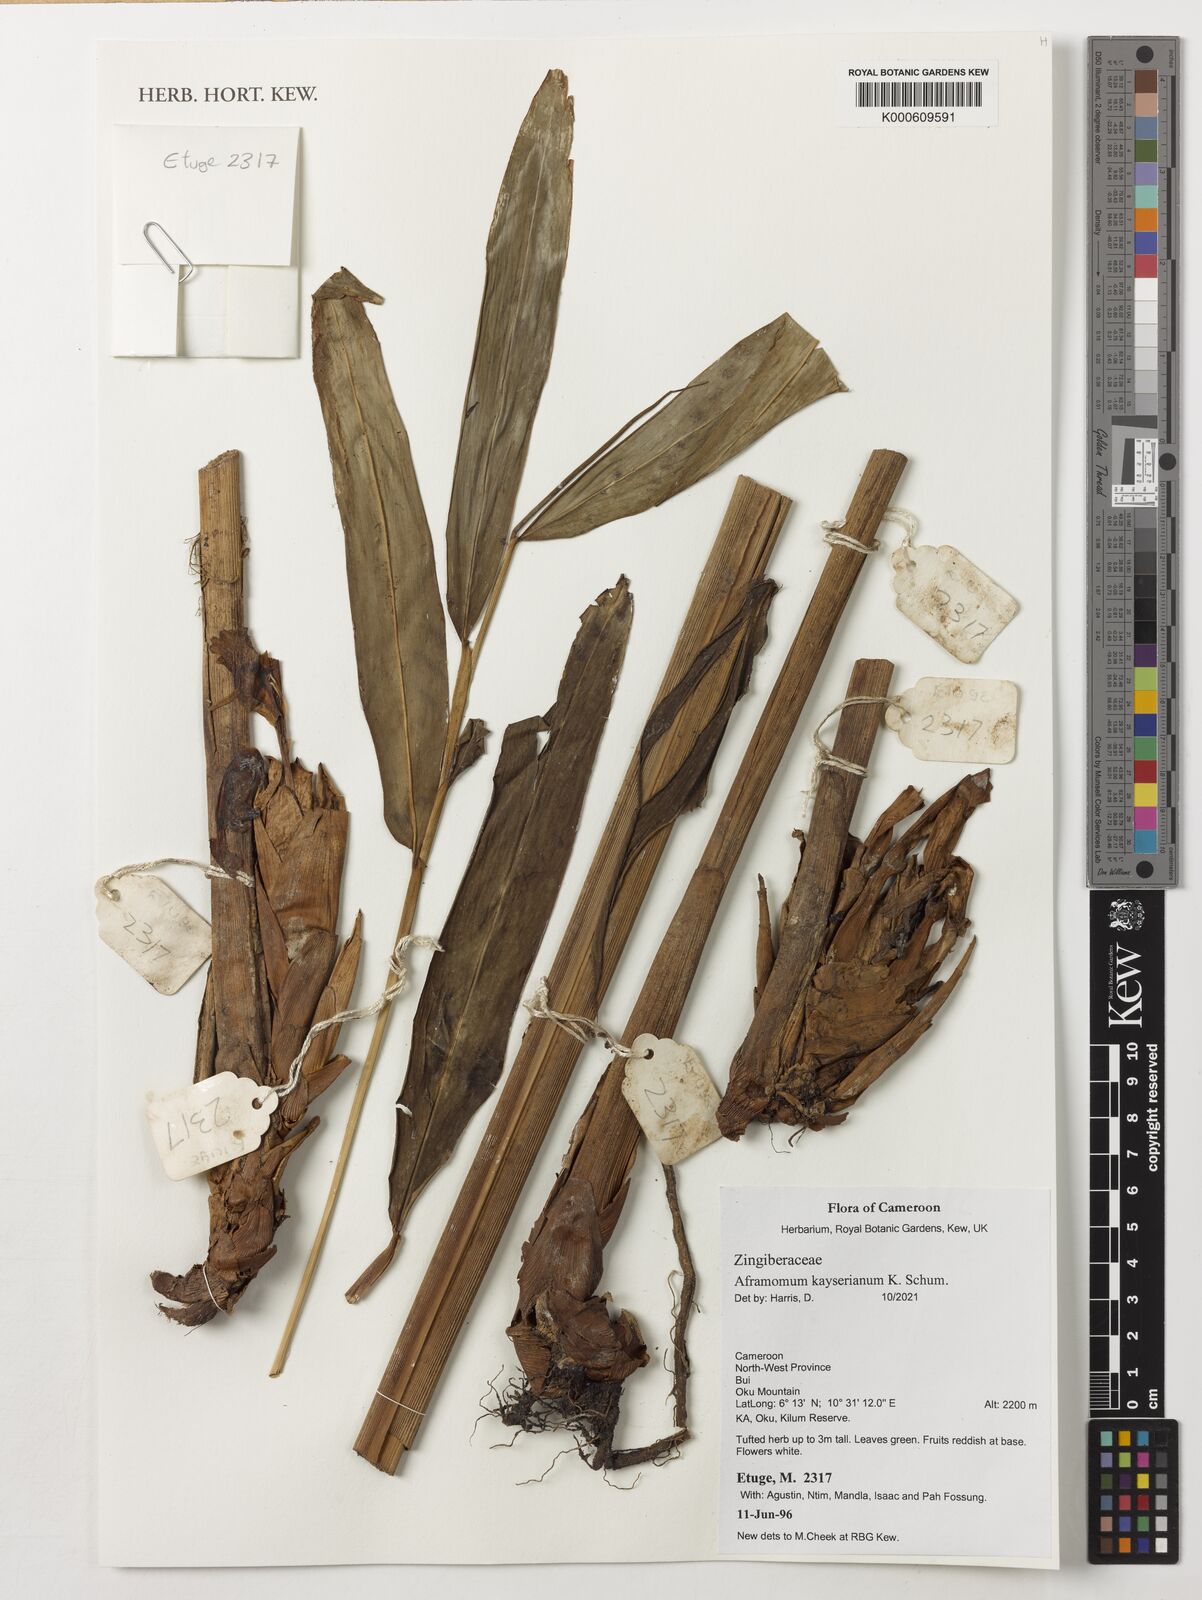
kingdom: Plantae
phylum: Tracheophyta
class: Liliopsida
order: Zingiberales
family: Zingiberaceae
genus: Aframomum
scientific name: Aframomum kayserianum
